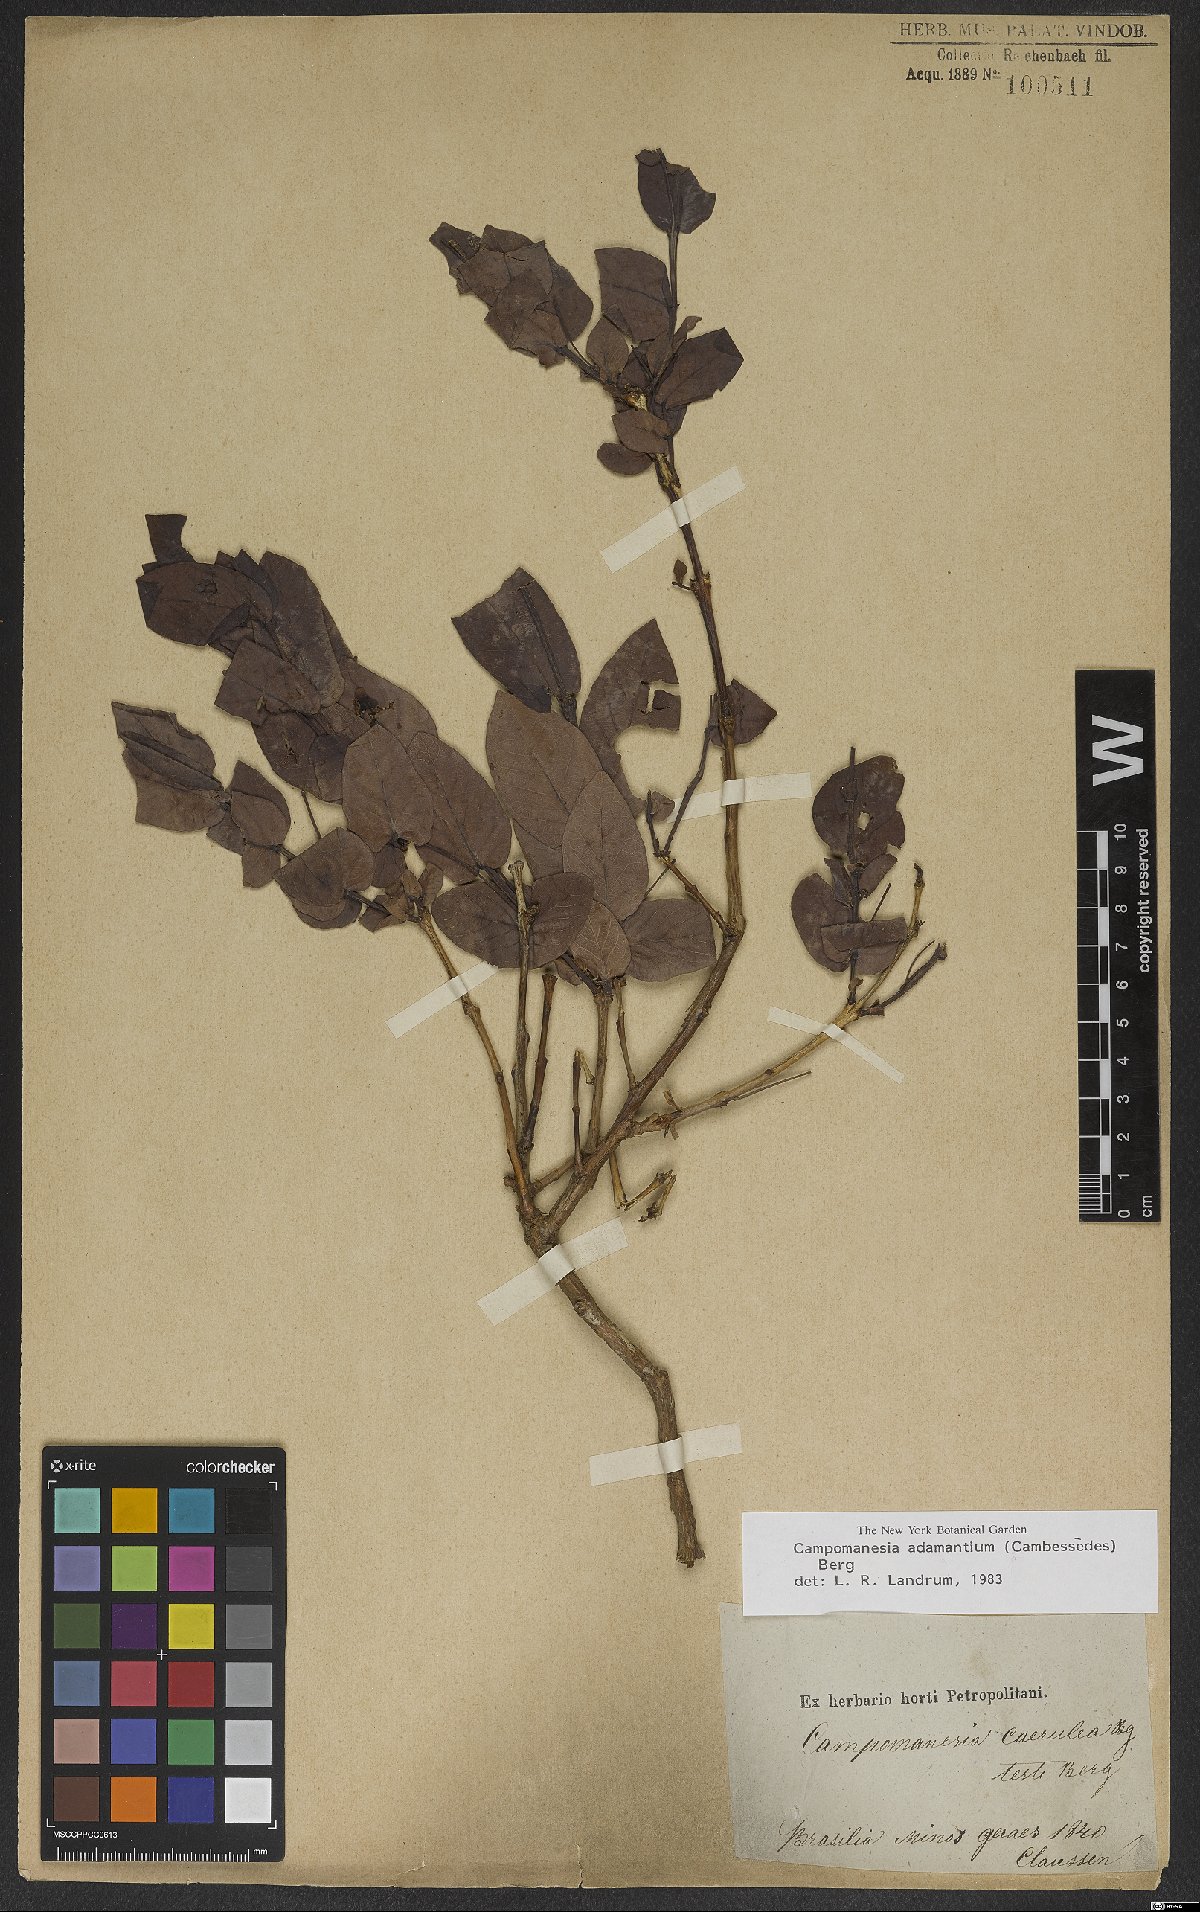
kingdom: Plantae
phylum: Tracheophyta
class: Magnoliopsida
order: Myrtales
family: Myrtaceae
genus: Campomanesia
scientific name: Campomanesia adamantium
